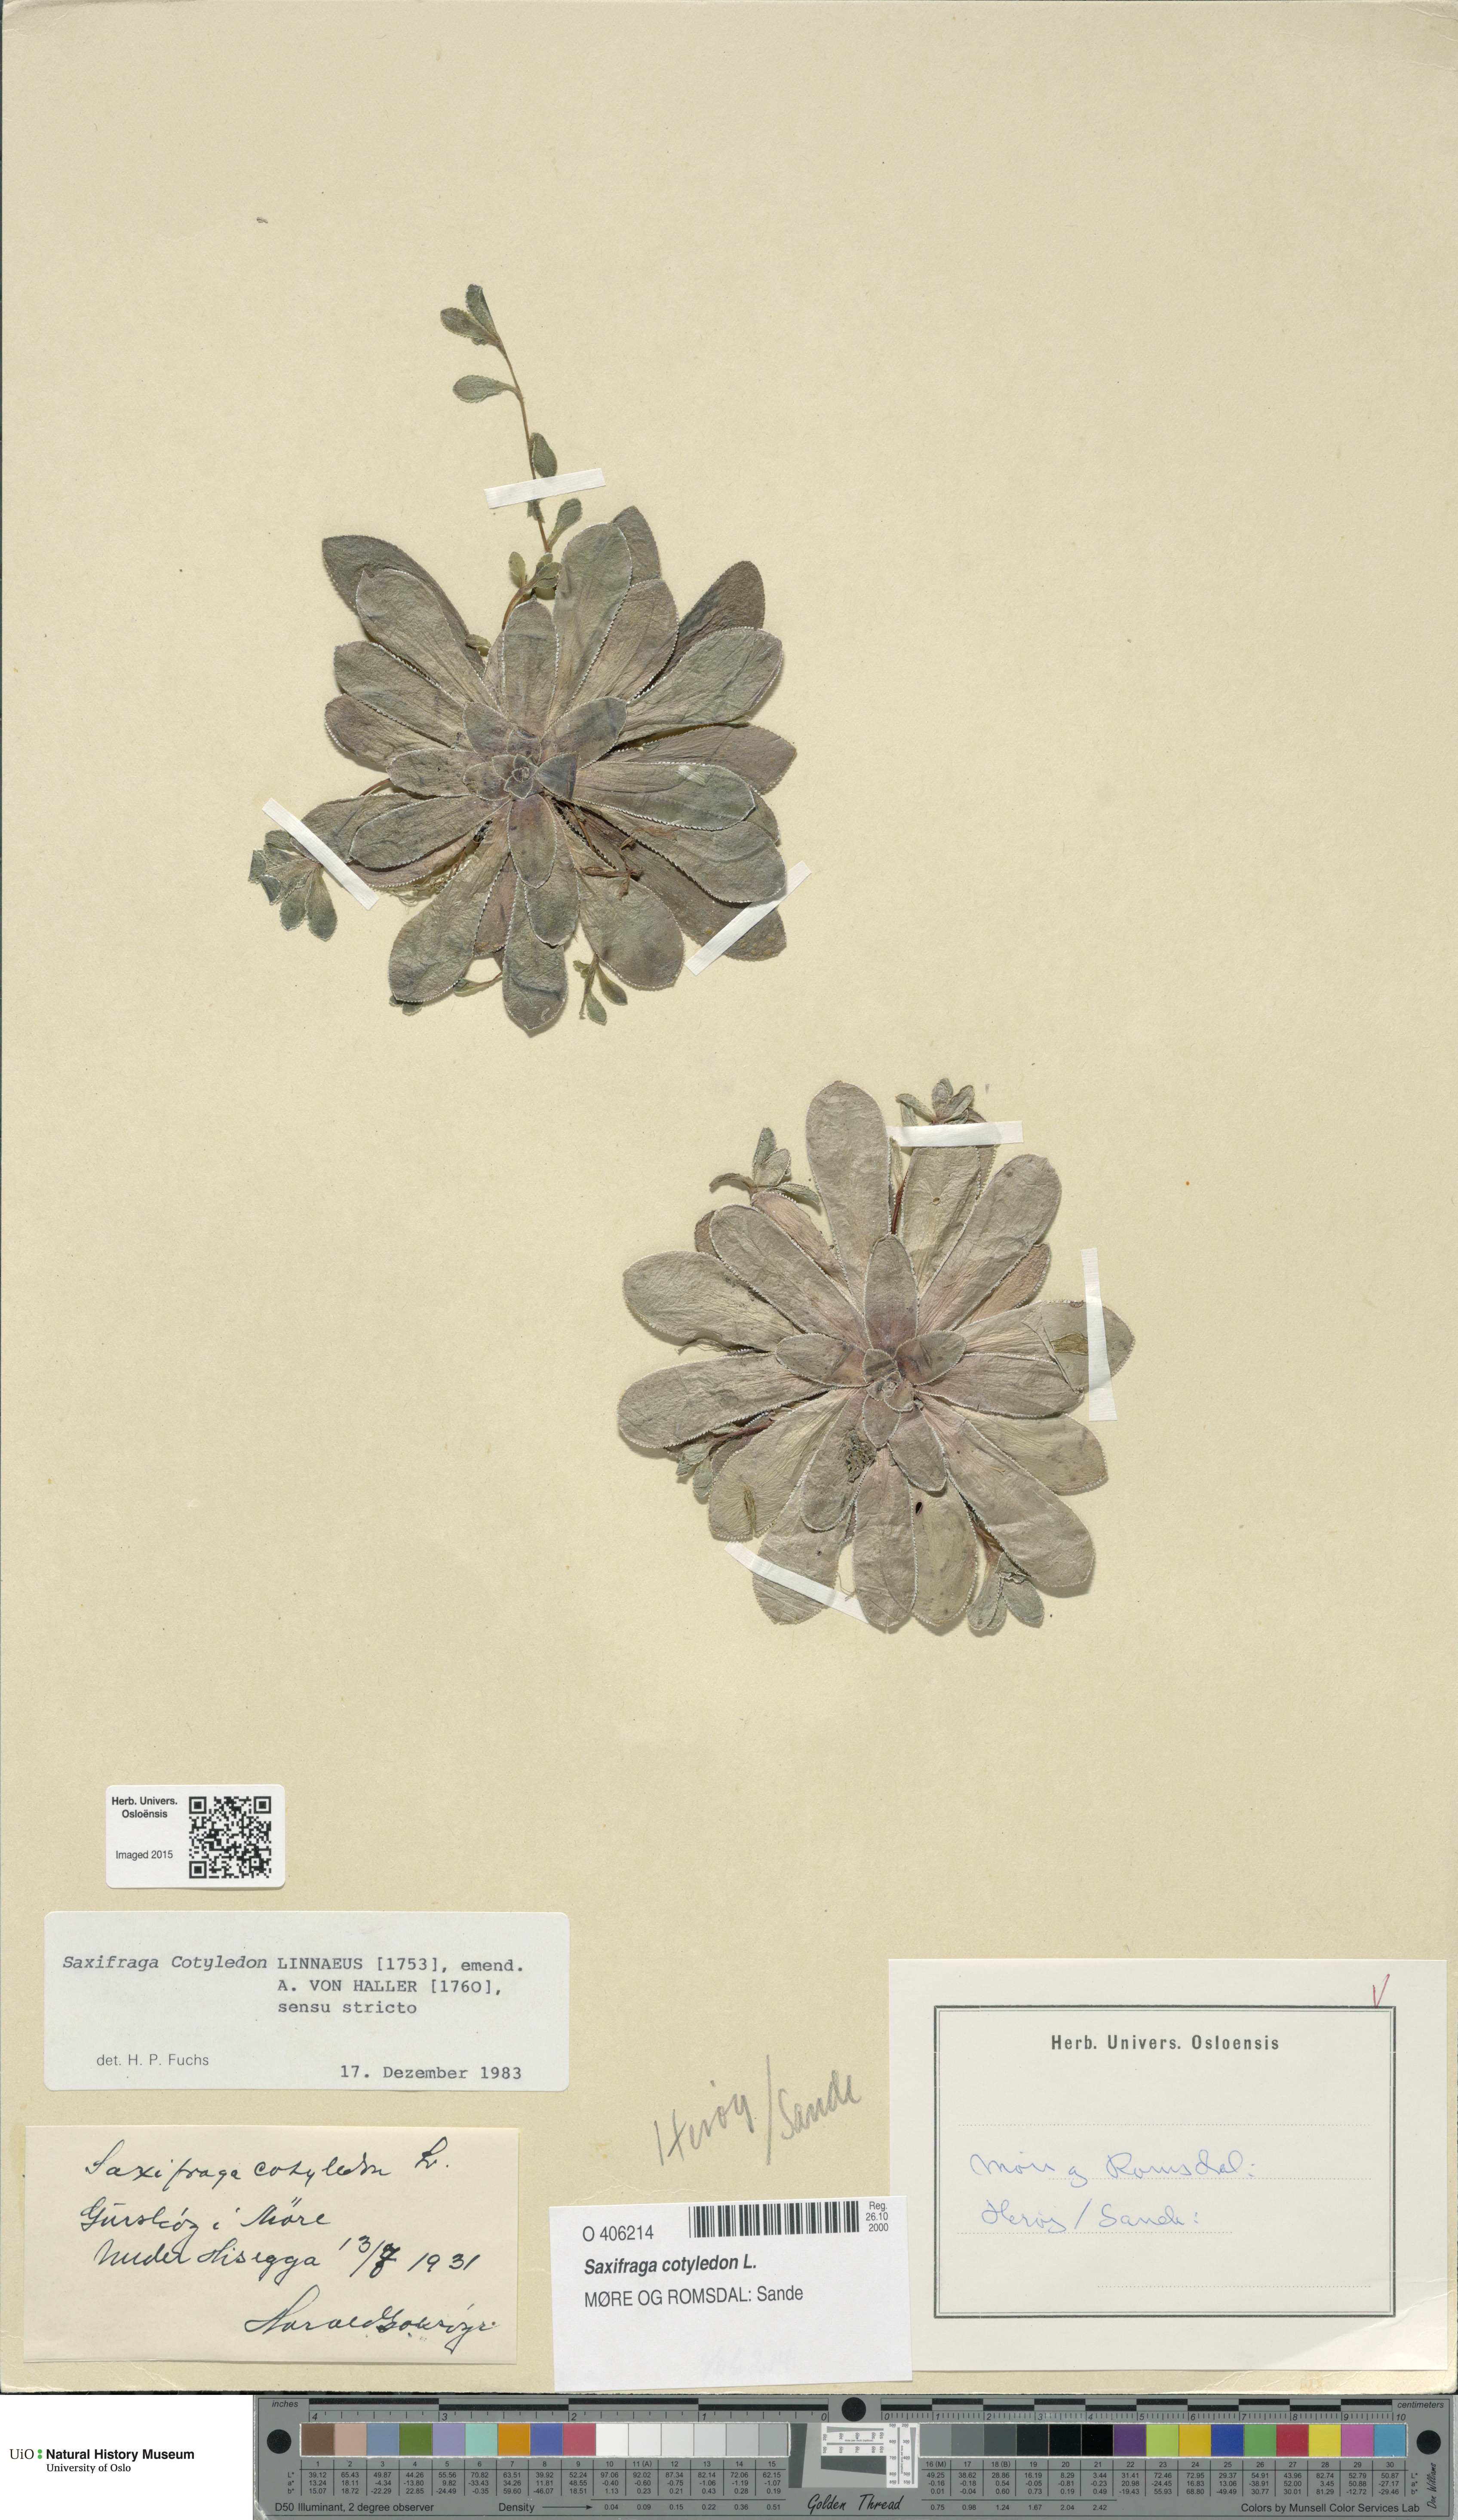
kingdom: Plantae
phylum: Tracheophyta
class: Magnoliopsida
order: Saxifragales
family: Saxifragaceae
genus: Saxifraga
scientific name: Saxifraga cotyledon
